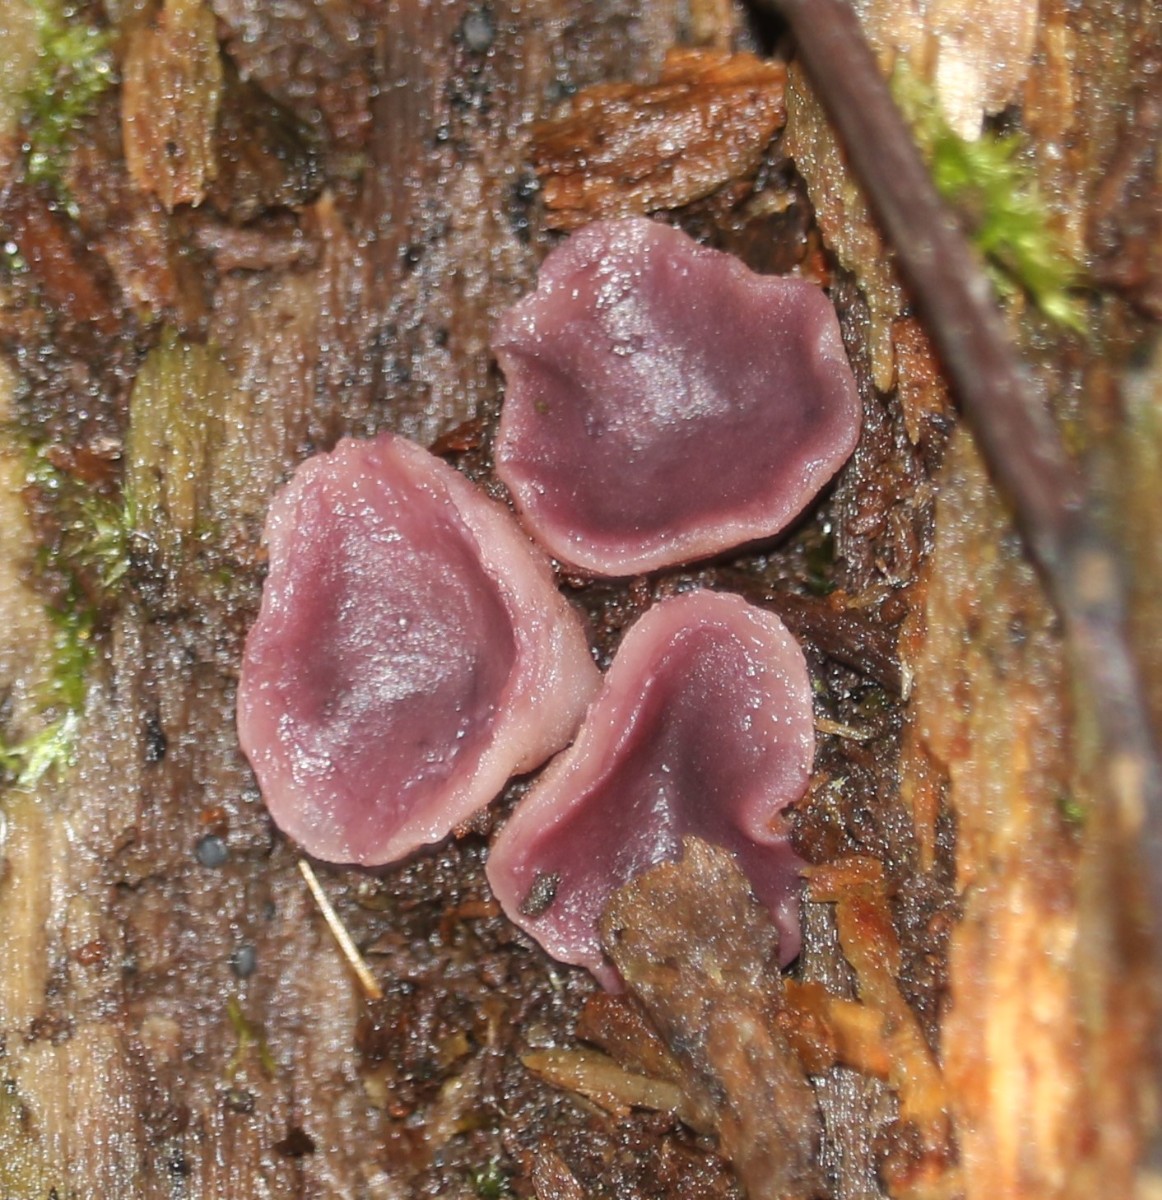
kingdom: Fungi
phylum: Ascomycota
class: Leotiomycetes
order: Helotiales
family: Gelatinodiscaceae
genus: Ascocoryne
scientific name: Ascocoryne cylichnium
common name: stor sejskive
